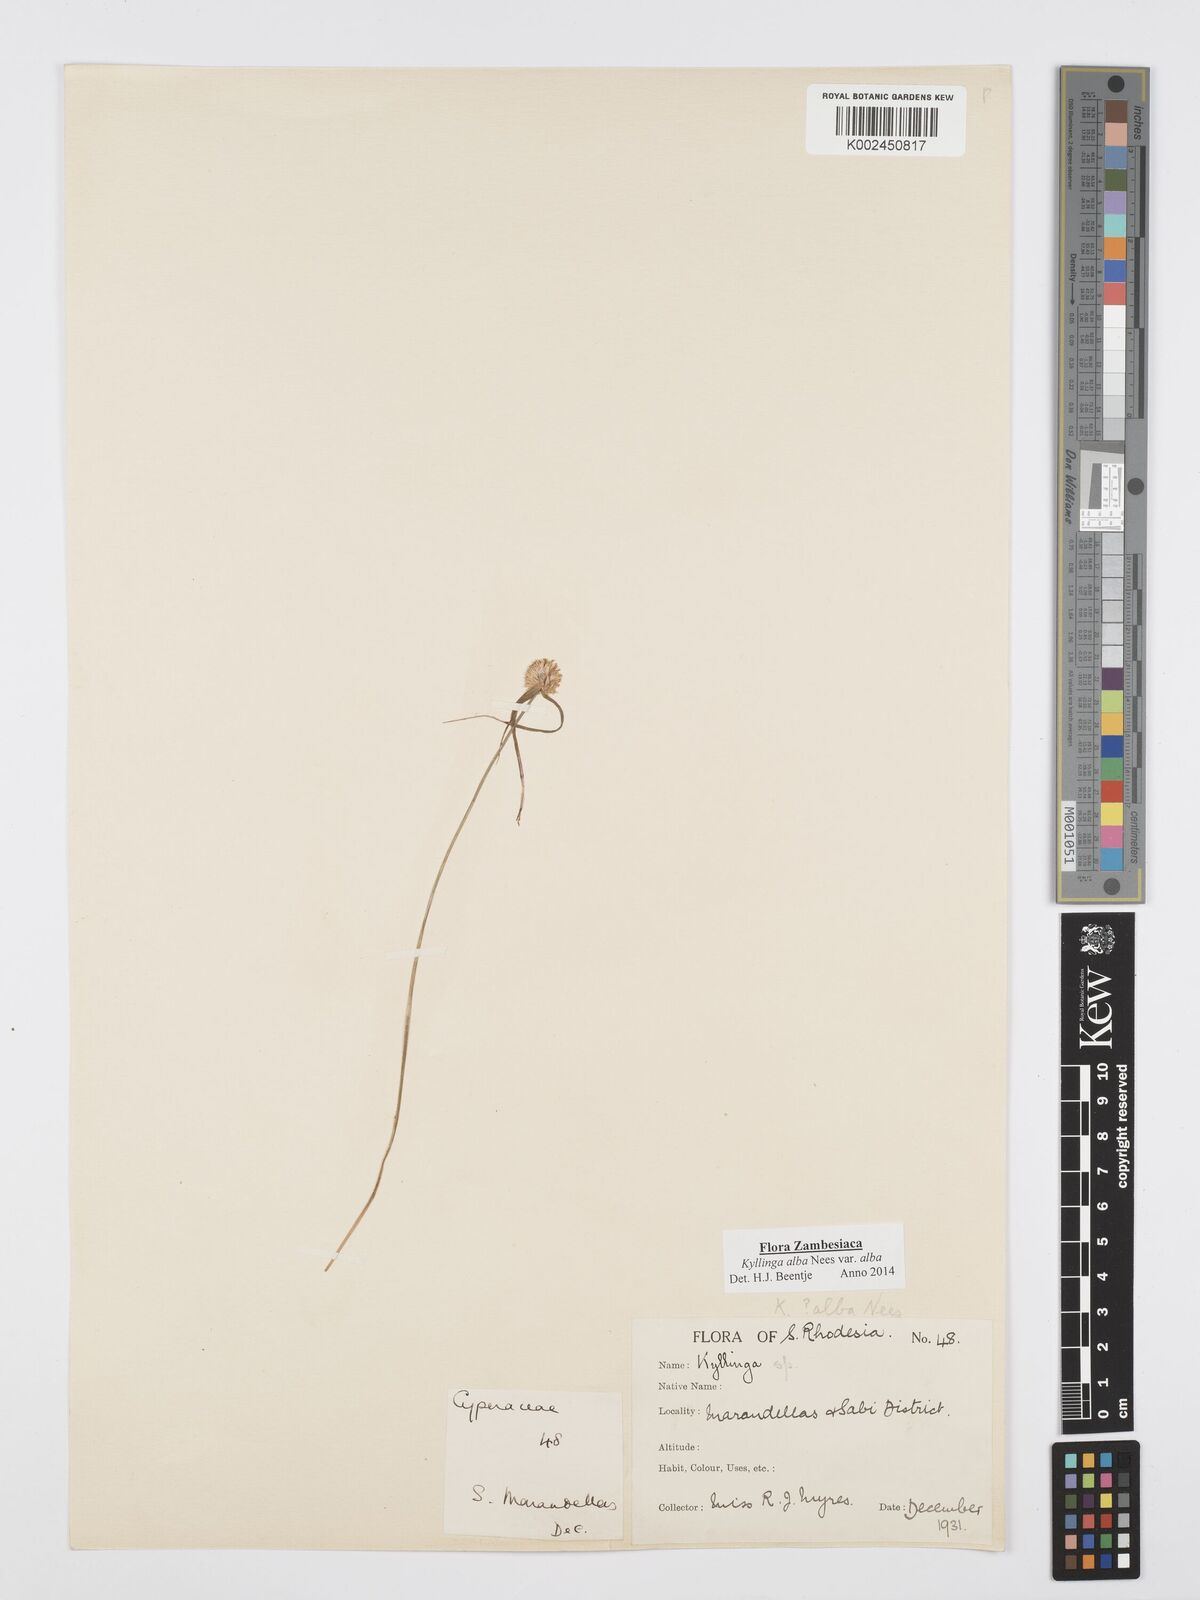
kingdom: Plantae
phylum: Tracheophyta
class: Liliopsida
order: Poales
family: Cyperaceae
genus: Cyperus
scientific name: Cyperus
